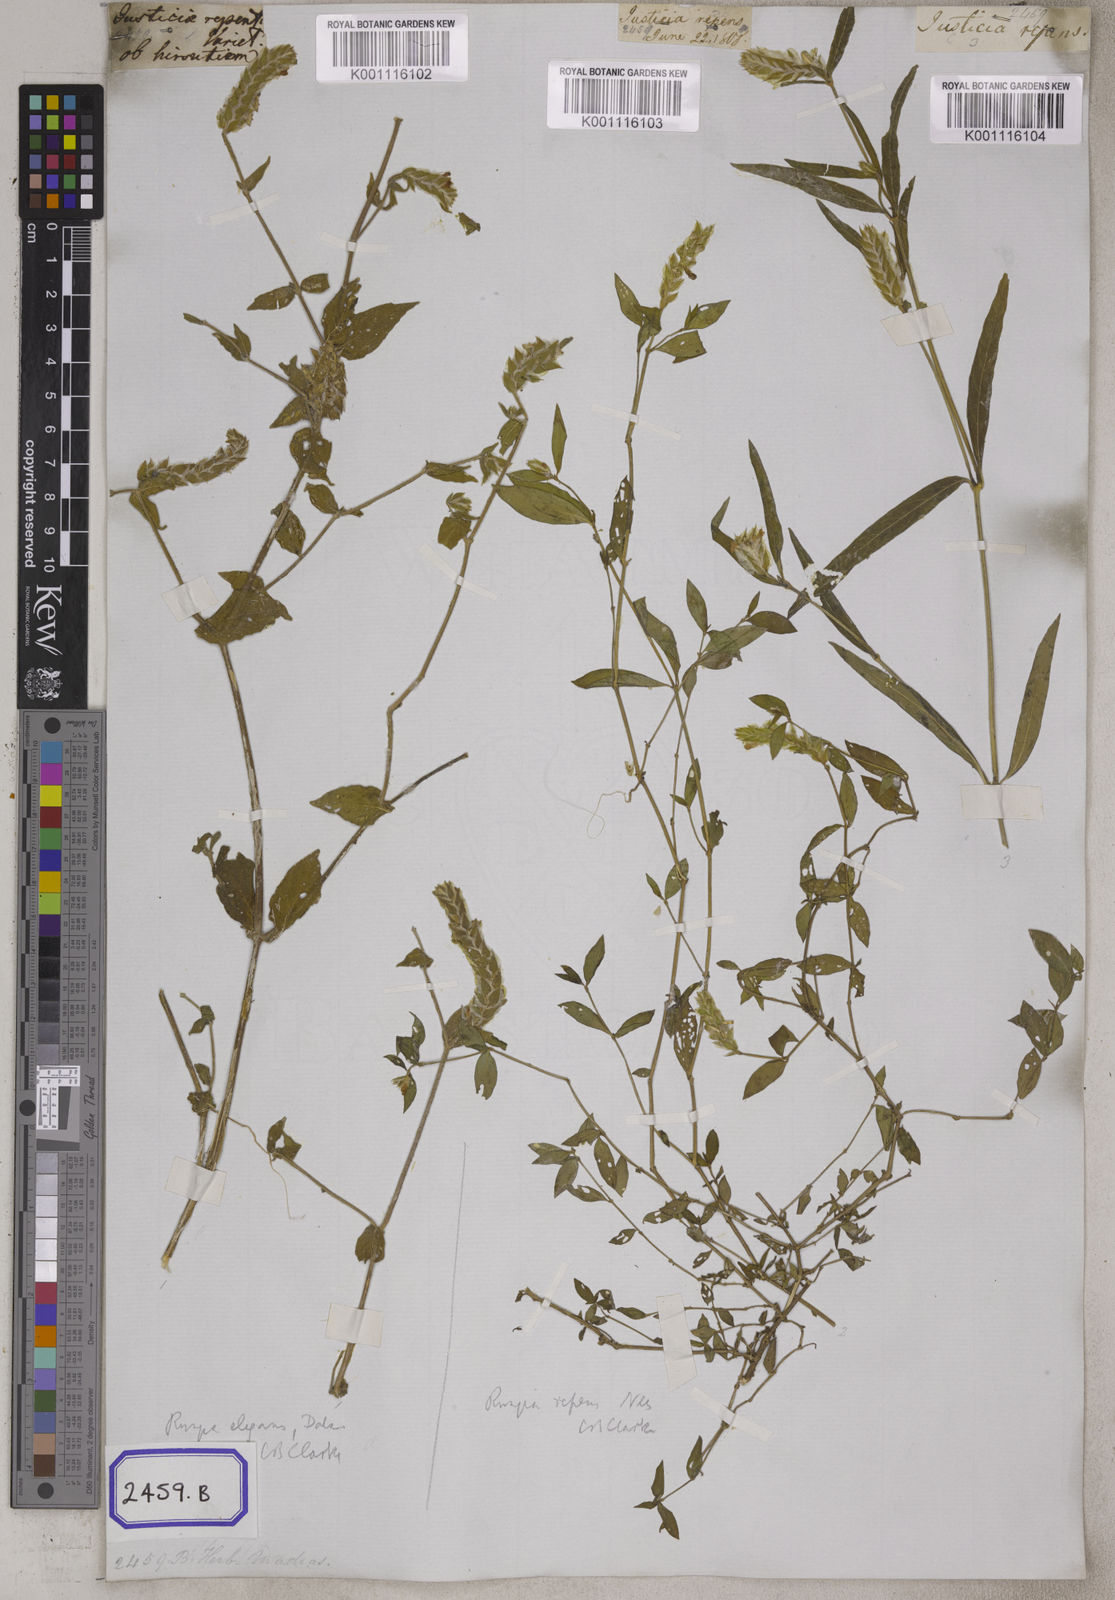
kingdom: Plantae
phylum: Tracheophyta
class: Magnoliopsida
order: Lamiales
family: Acanthaceae
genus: Justicia
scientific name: Justicia
